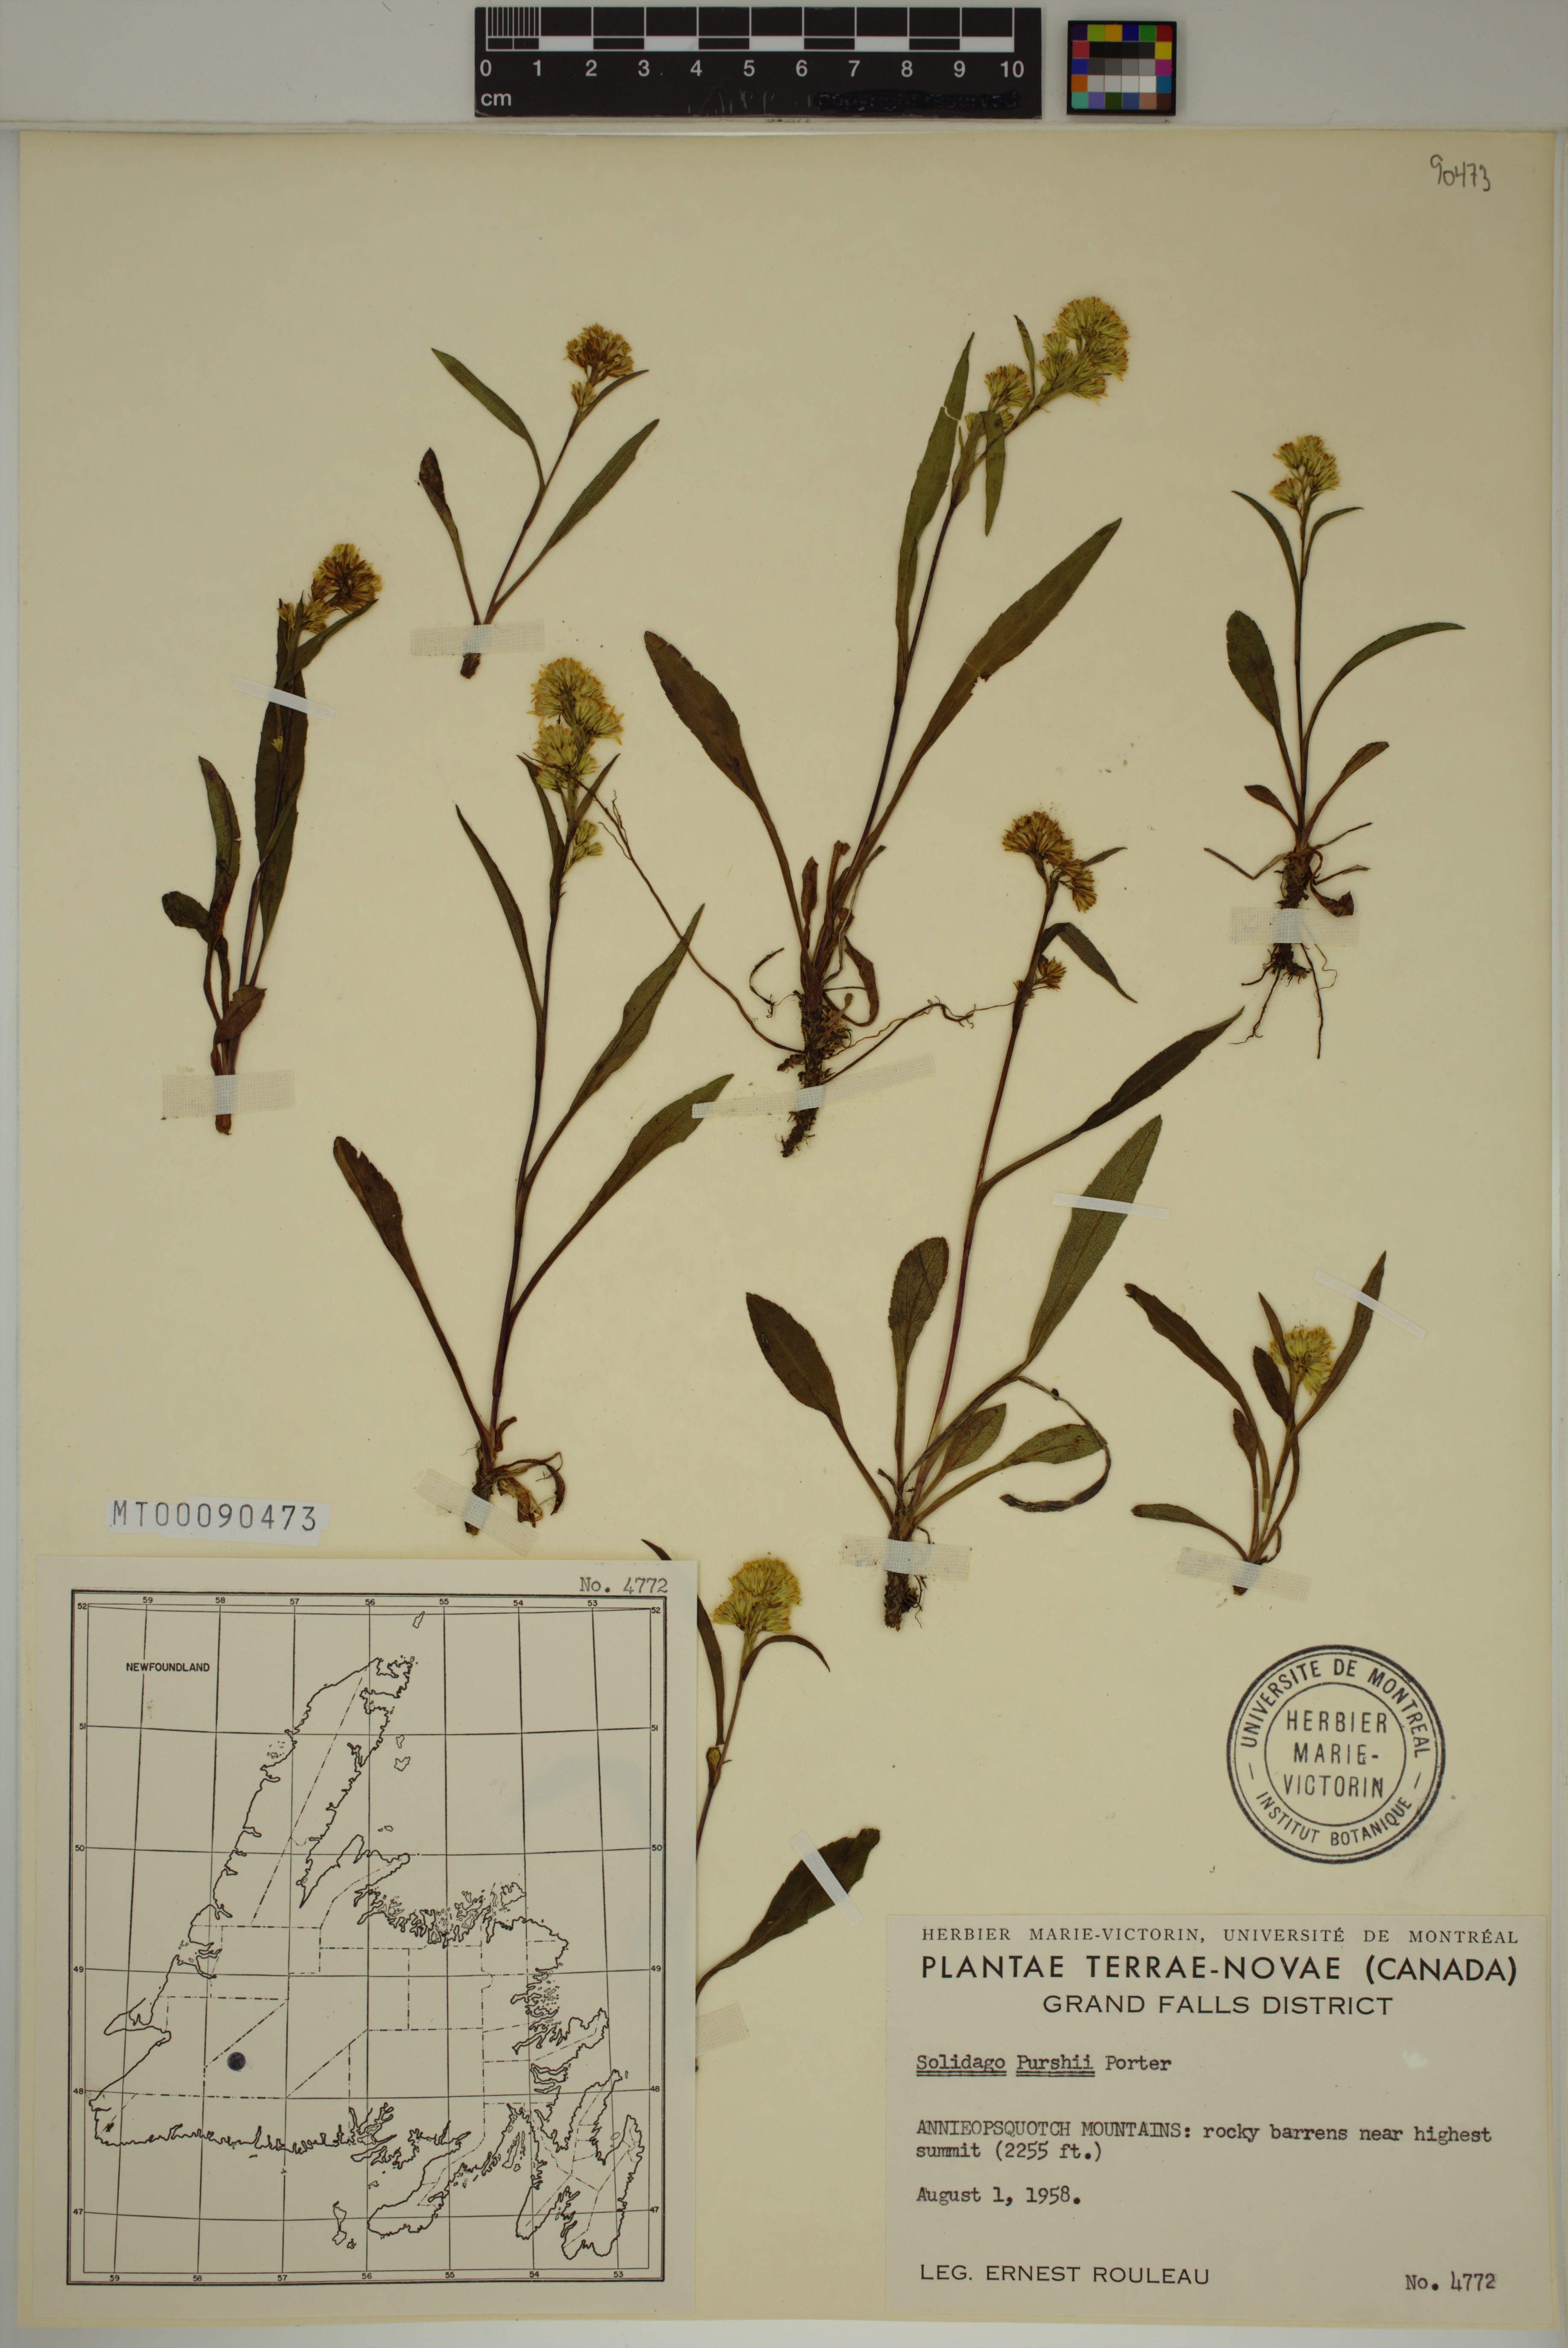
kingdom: Plantae
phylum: Tracheophyta
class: Magnoliopsida
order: Asterales
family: Asteraceae
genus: Solidago
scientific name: Solidago uliginosa
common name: Bog goldenrod
